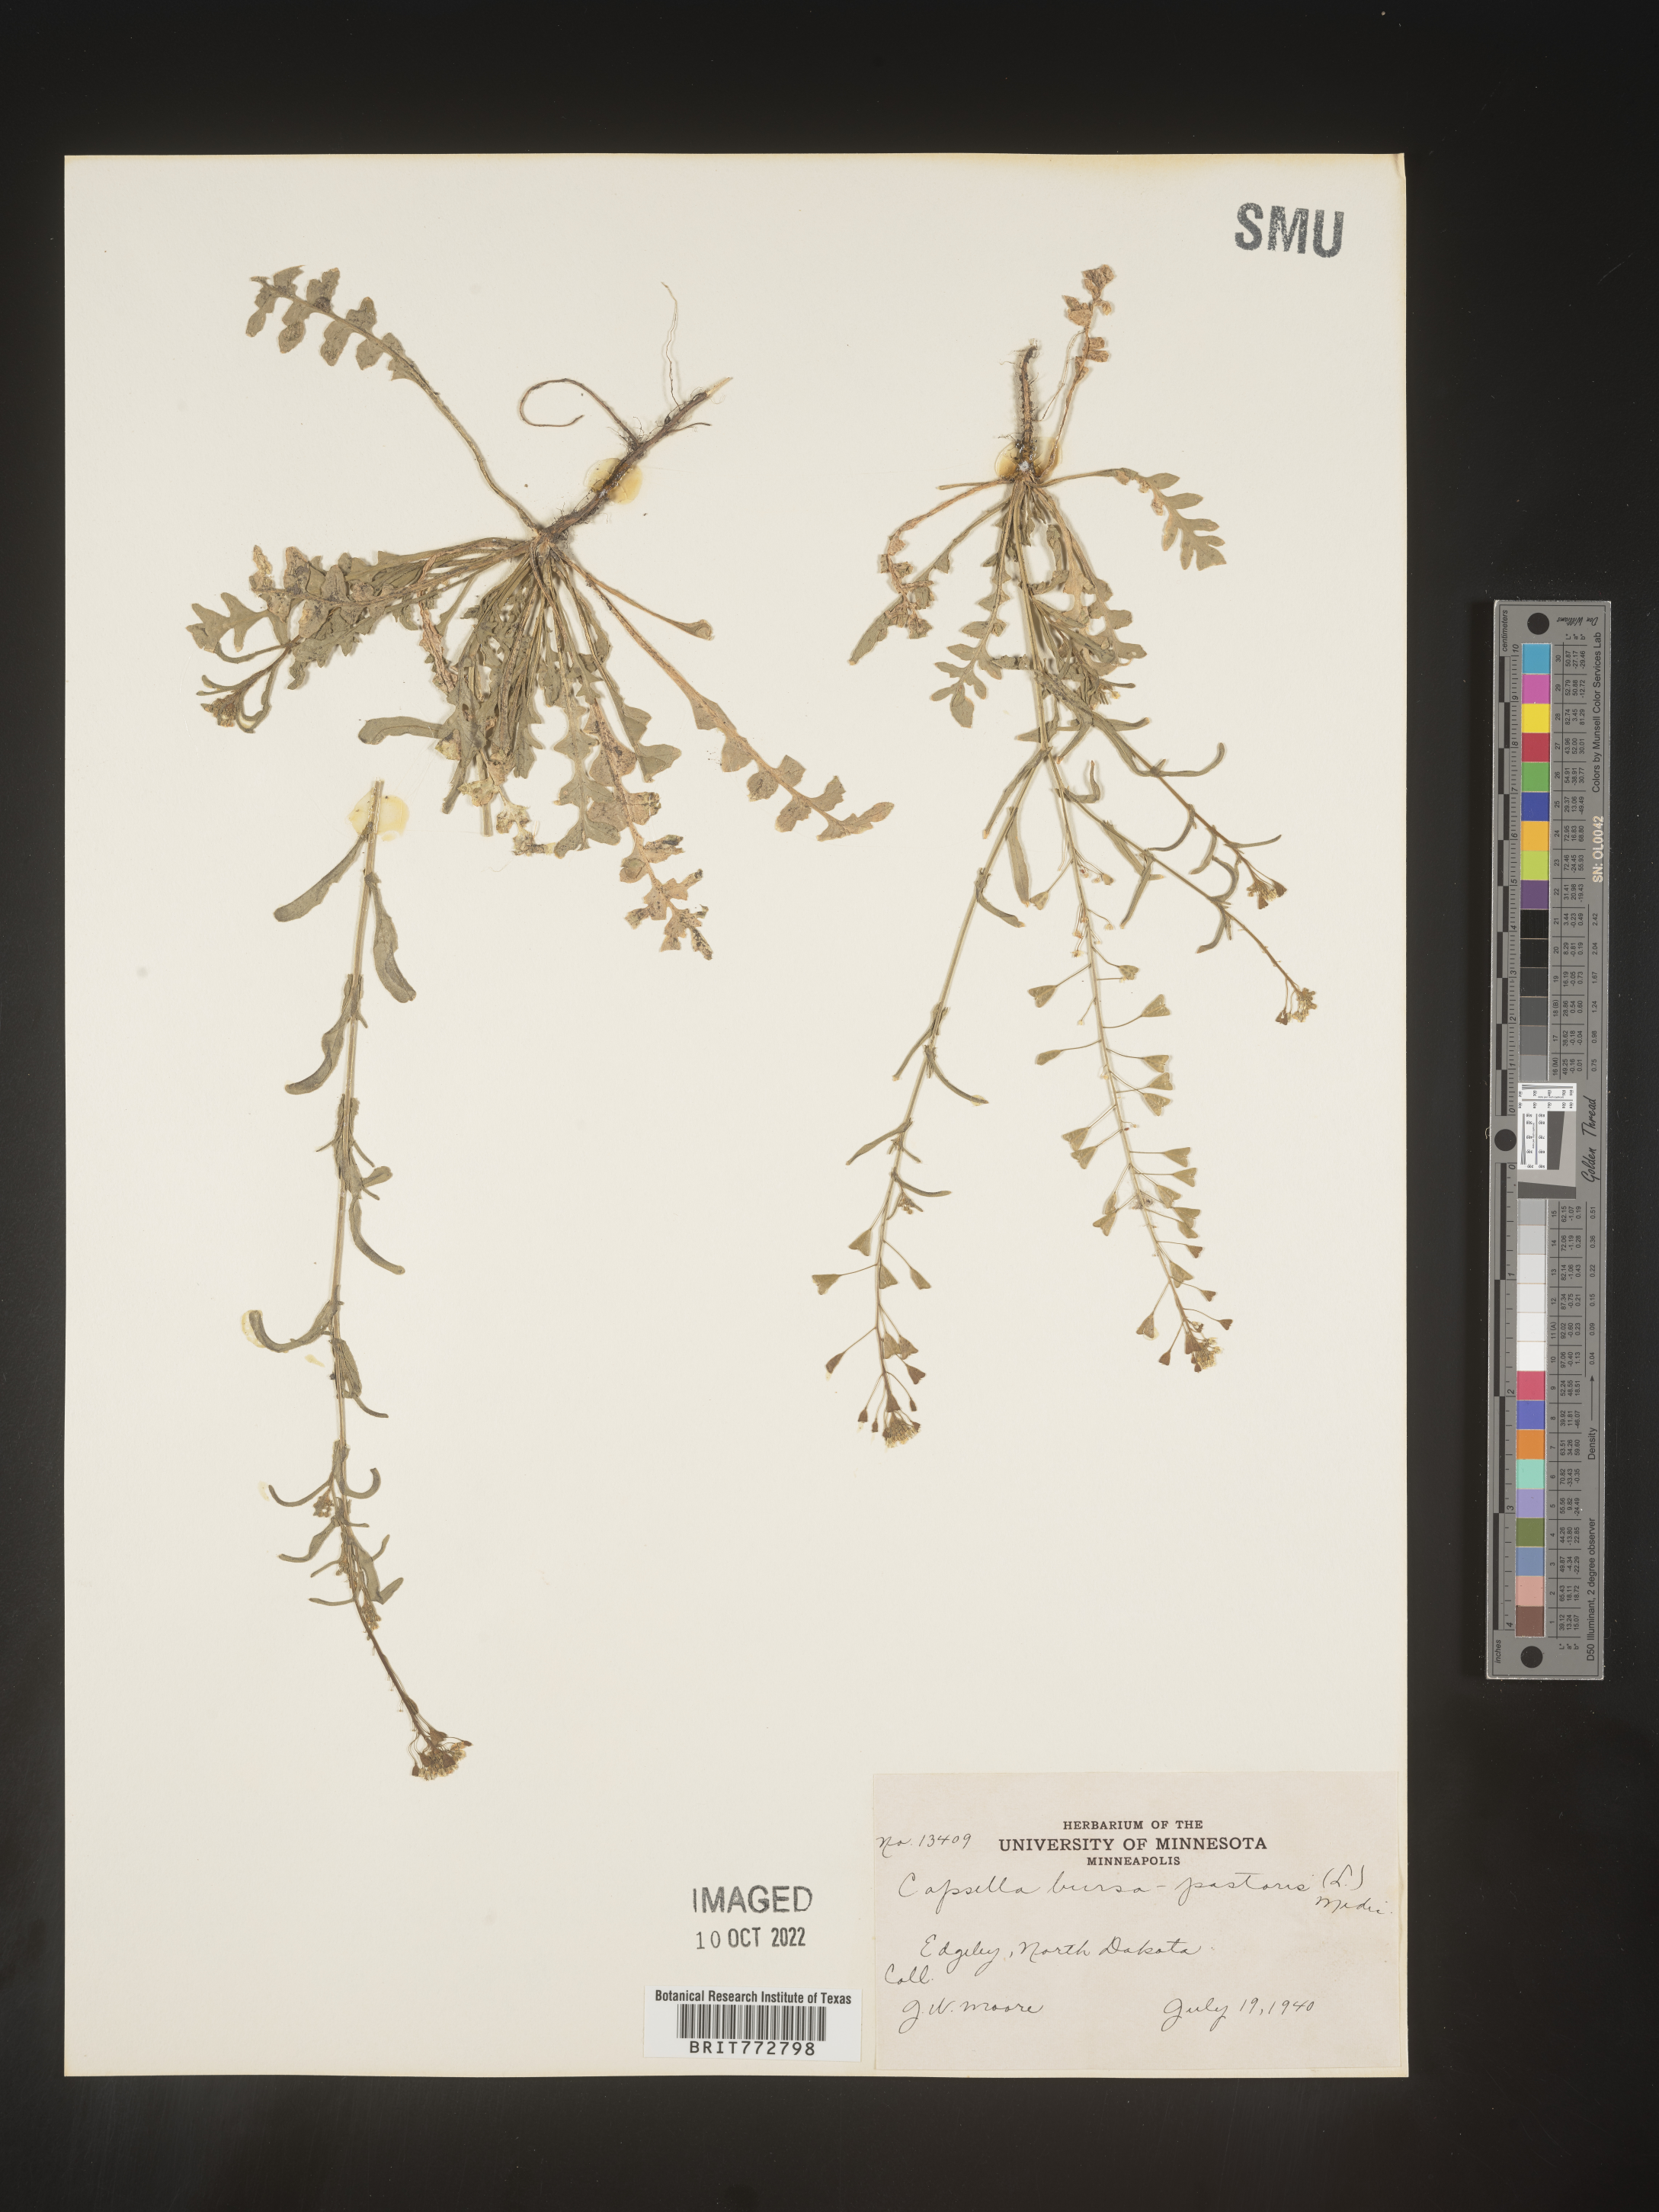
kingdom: Plantae
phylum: Tracheophyta
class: Magnoliopsida
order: Brassicales
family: Brassicaceae
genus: Capsella
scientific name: Capsella bursa-pastoris
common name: Shepherd's purse
